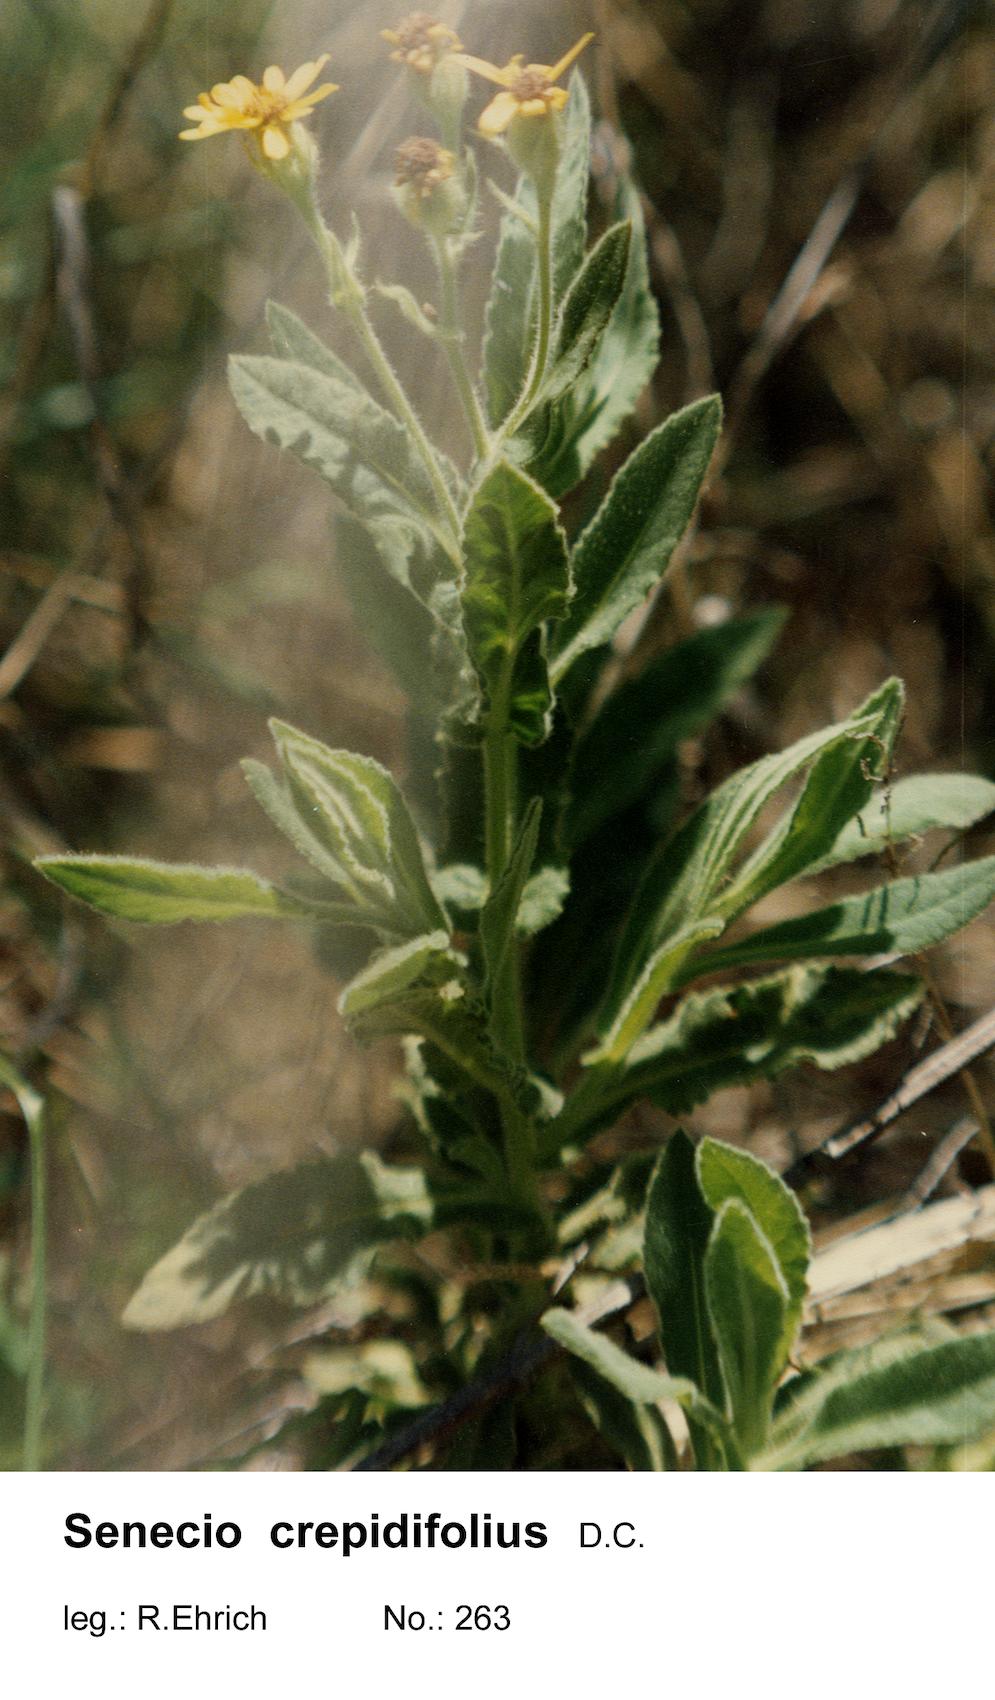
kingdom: Plantae
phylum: Tracheophyta
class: Magnoliopsida
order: Asterales
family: Asteraceae
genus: Senecio
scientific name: Senecio crepidifolius
